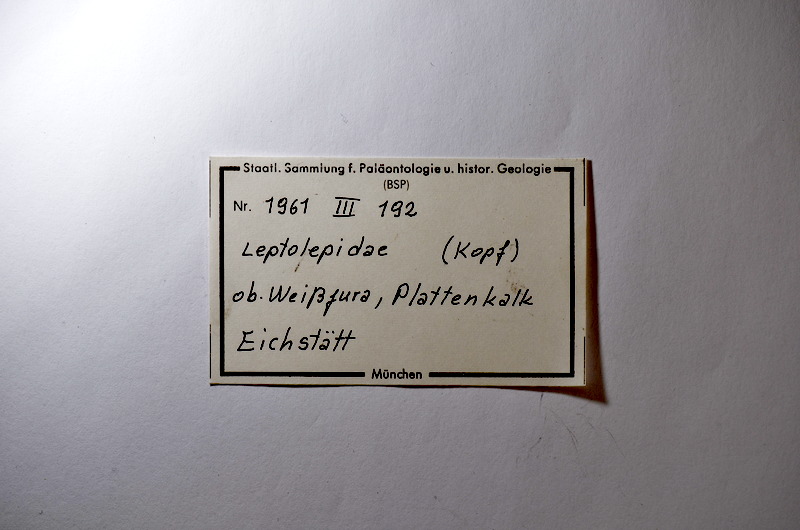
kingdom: Animalia
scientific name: Animalia
